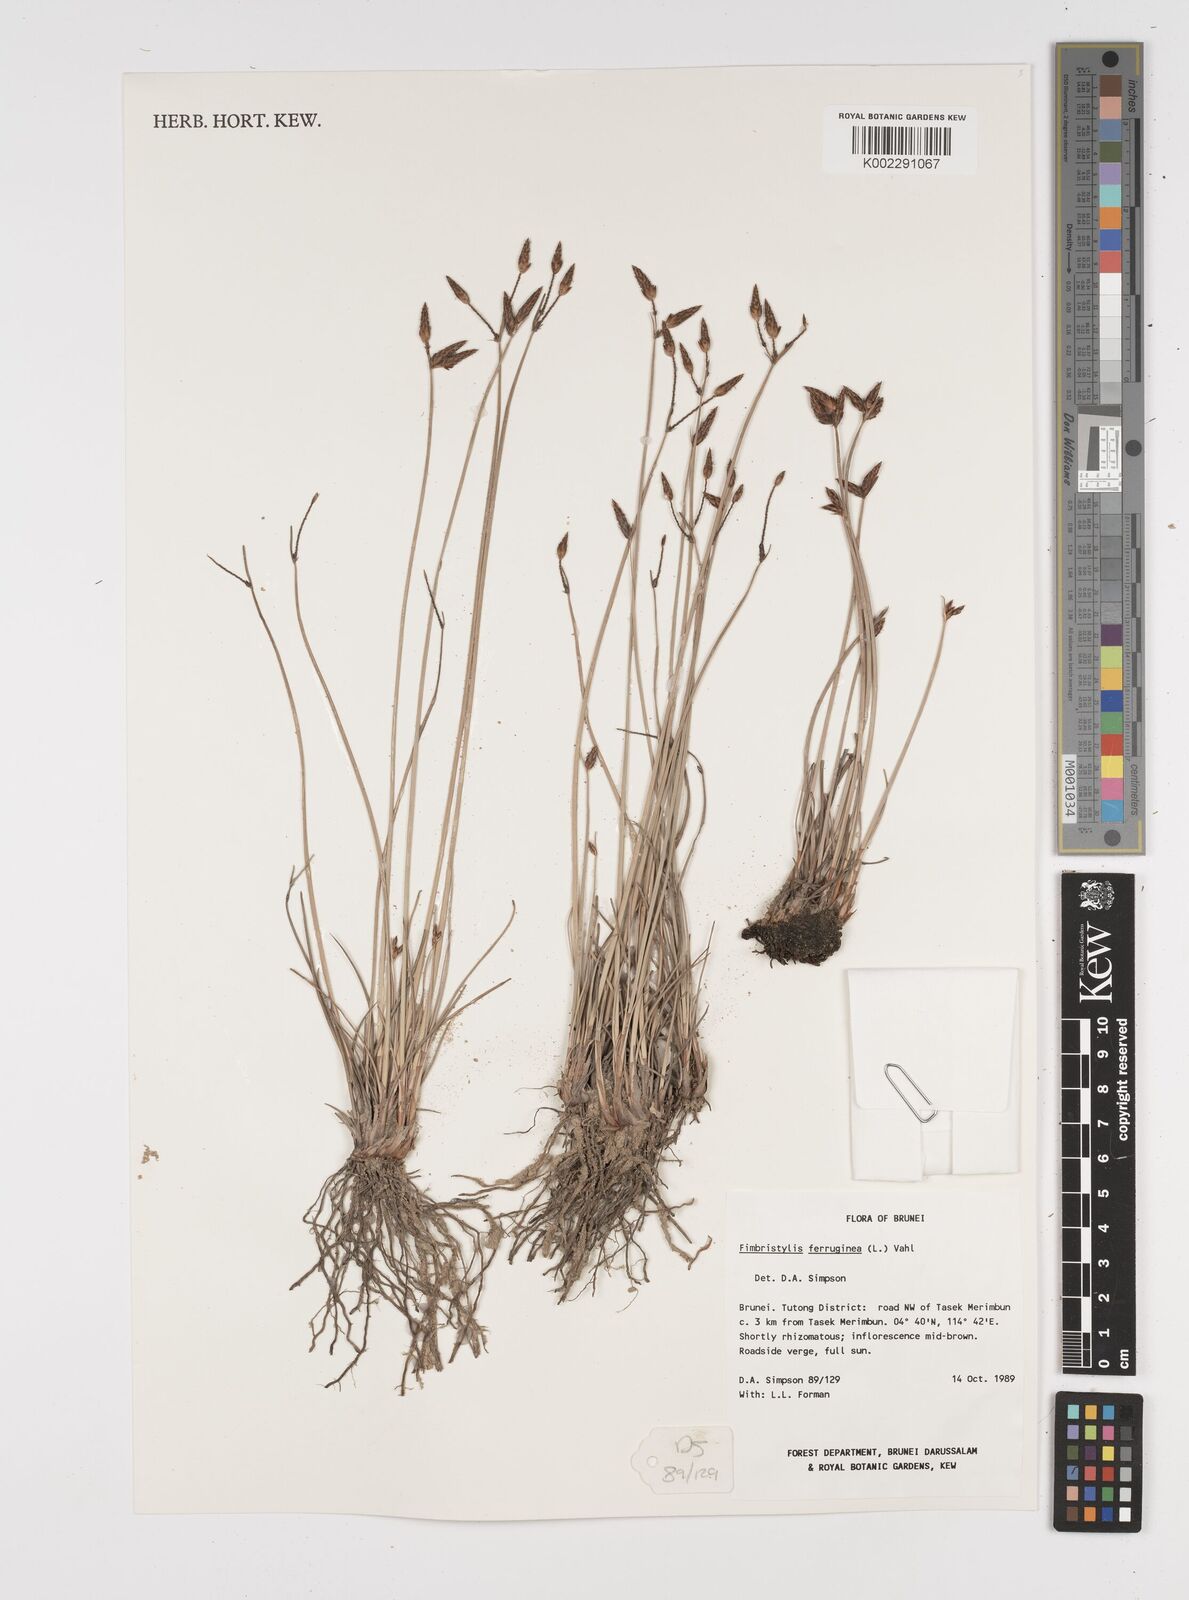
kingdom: Plantae
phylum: Tracheophyta
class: Liliopsida
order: Poales
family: Cyperaceae
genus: Fimbristylis
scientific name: Fimbristylis ferruginea
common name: West indian fimbry
